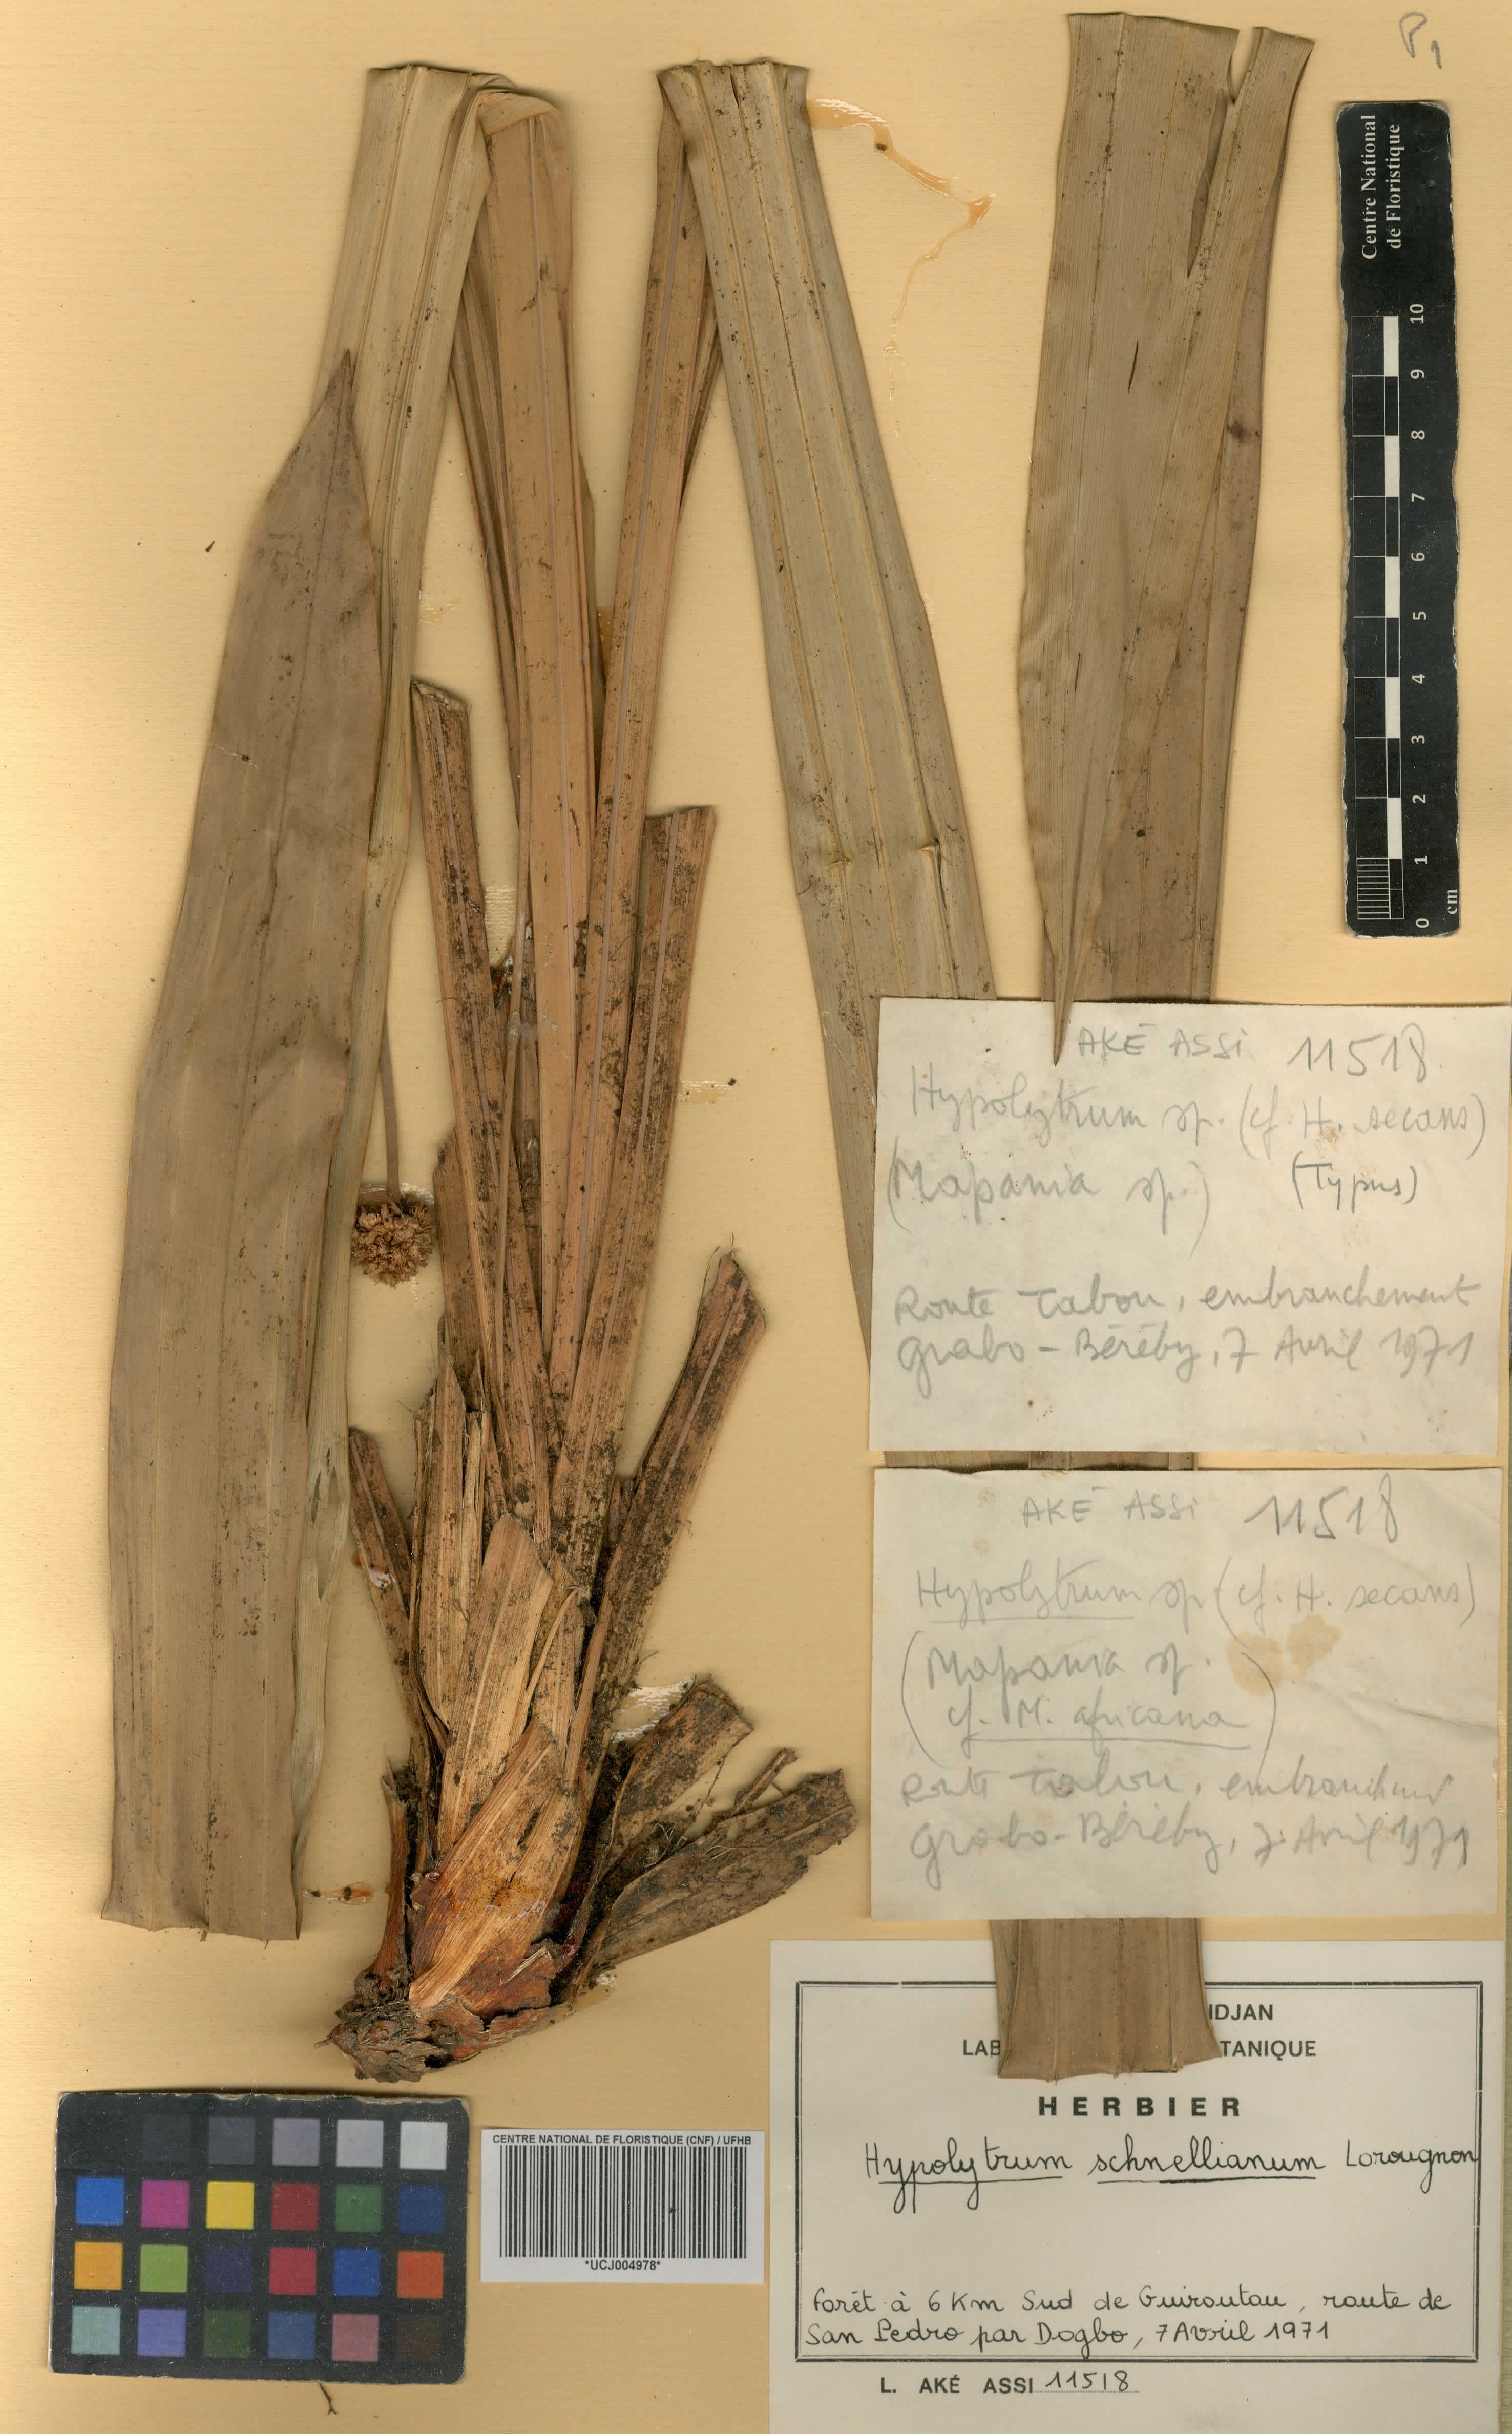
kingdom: Plantae
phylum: Tracheophyta
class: Liliopsida
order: Poales
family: Cyperaceae
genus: Hypolytrum
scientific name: Hypolytrum schnellianum
